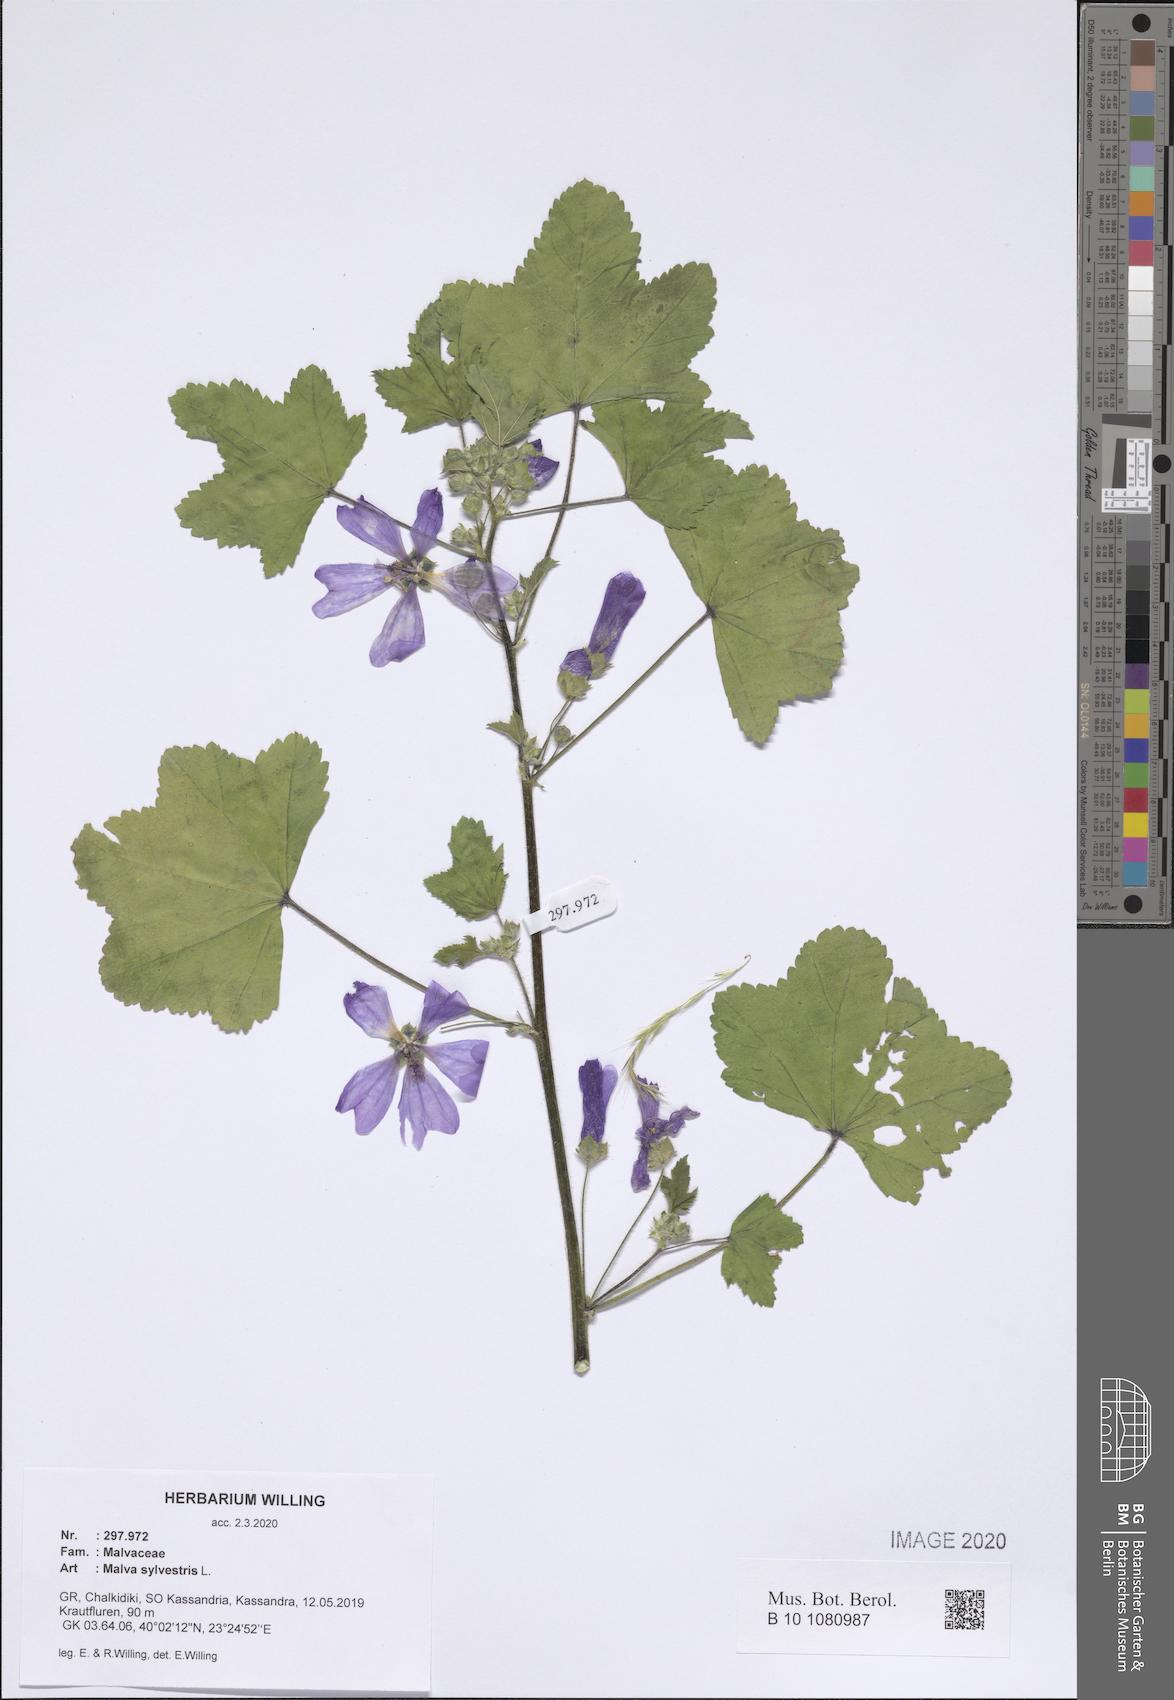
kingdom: Plantae
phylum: Tracheophyta
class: Magnoliopsida
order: Malvales
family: Malvaceae
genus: Malva
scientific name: Malva sylvestris
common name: Common mallow
